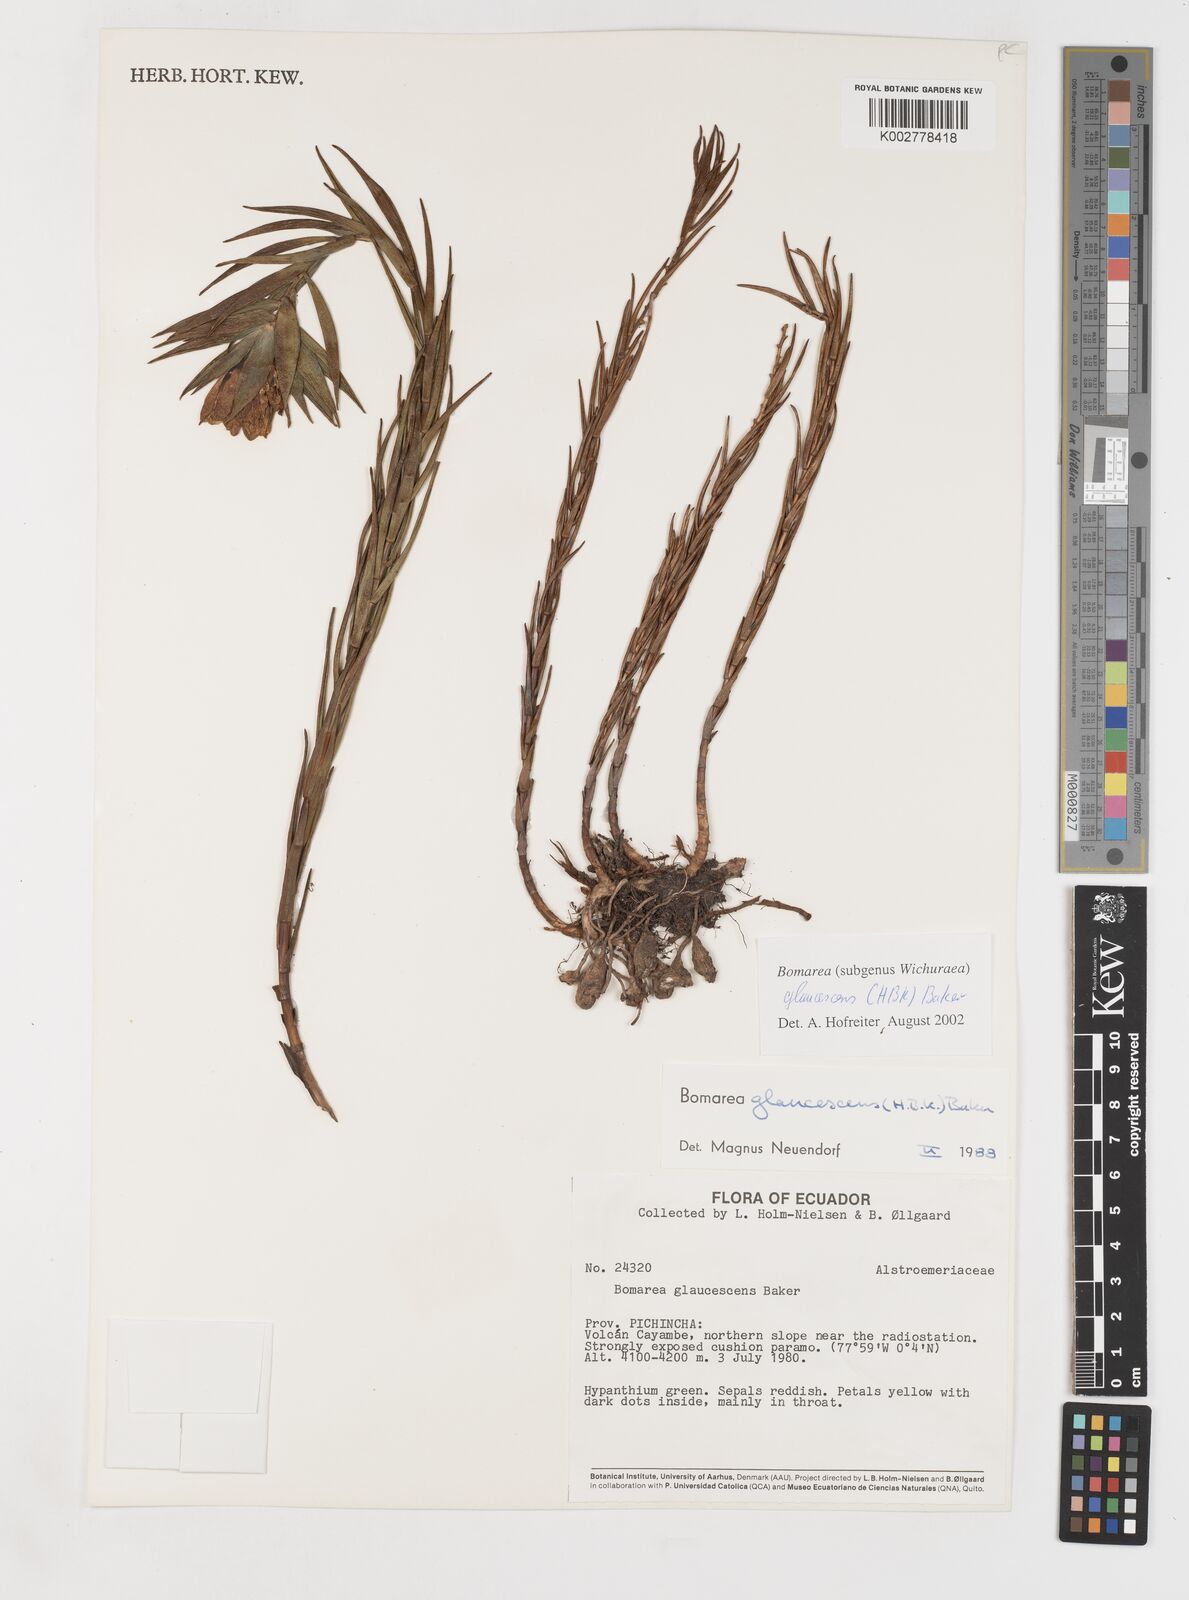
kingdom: Plantae
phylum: Tracheophyta
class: Liliopsida
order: Liliales
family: Alstroemeriaceae
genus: Bomarea
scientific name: Bomarea glaucescens
